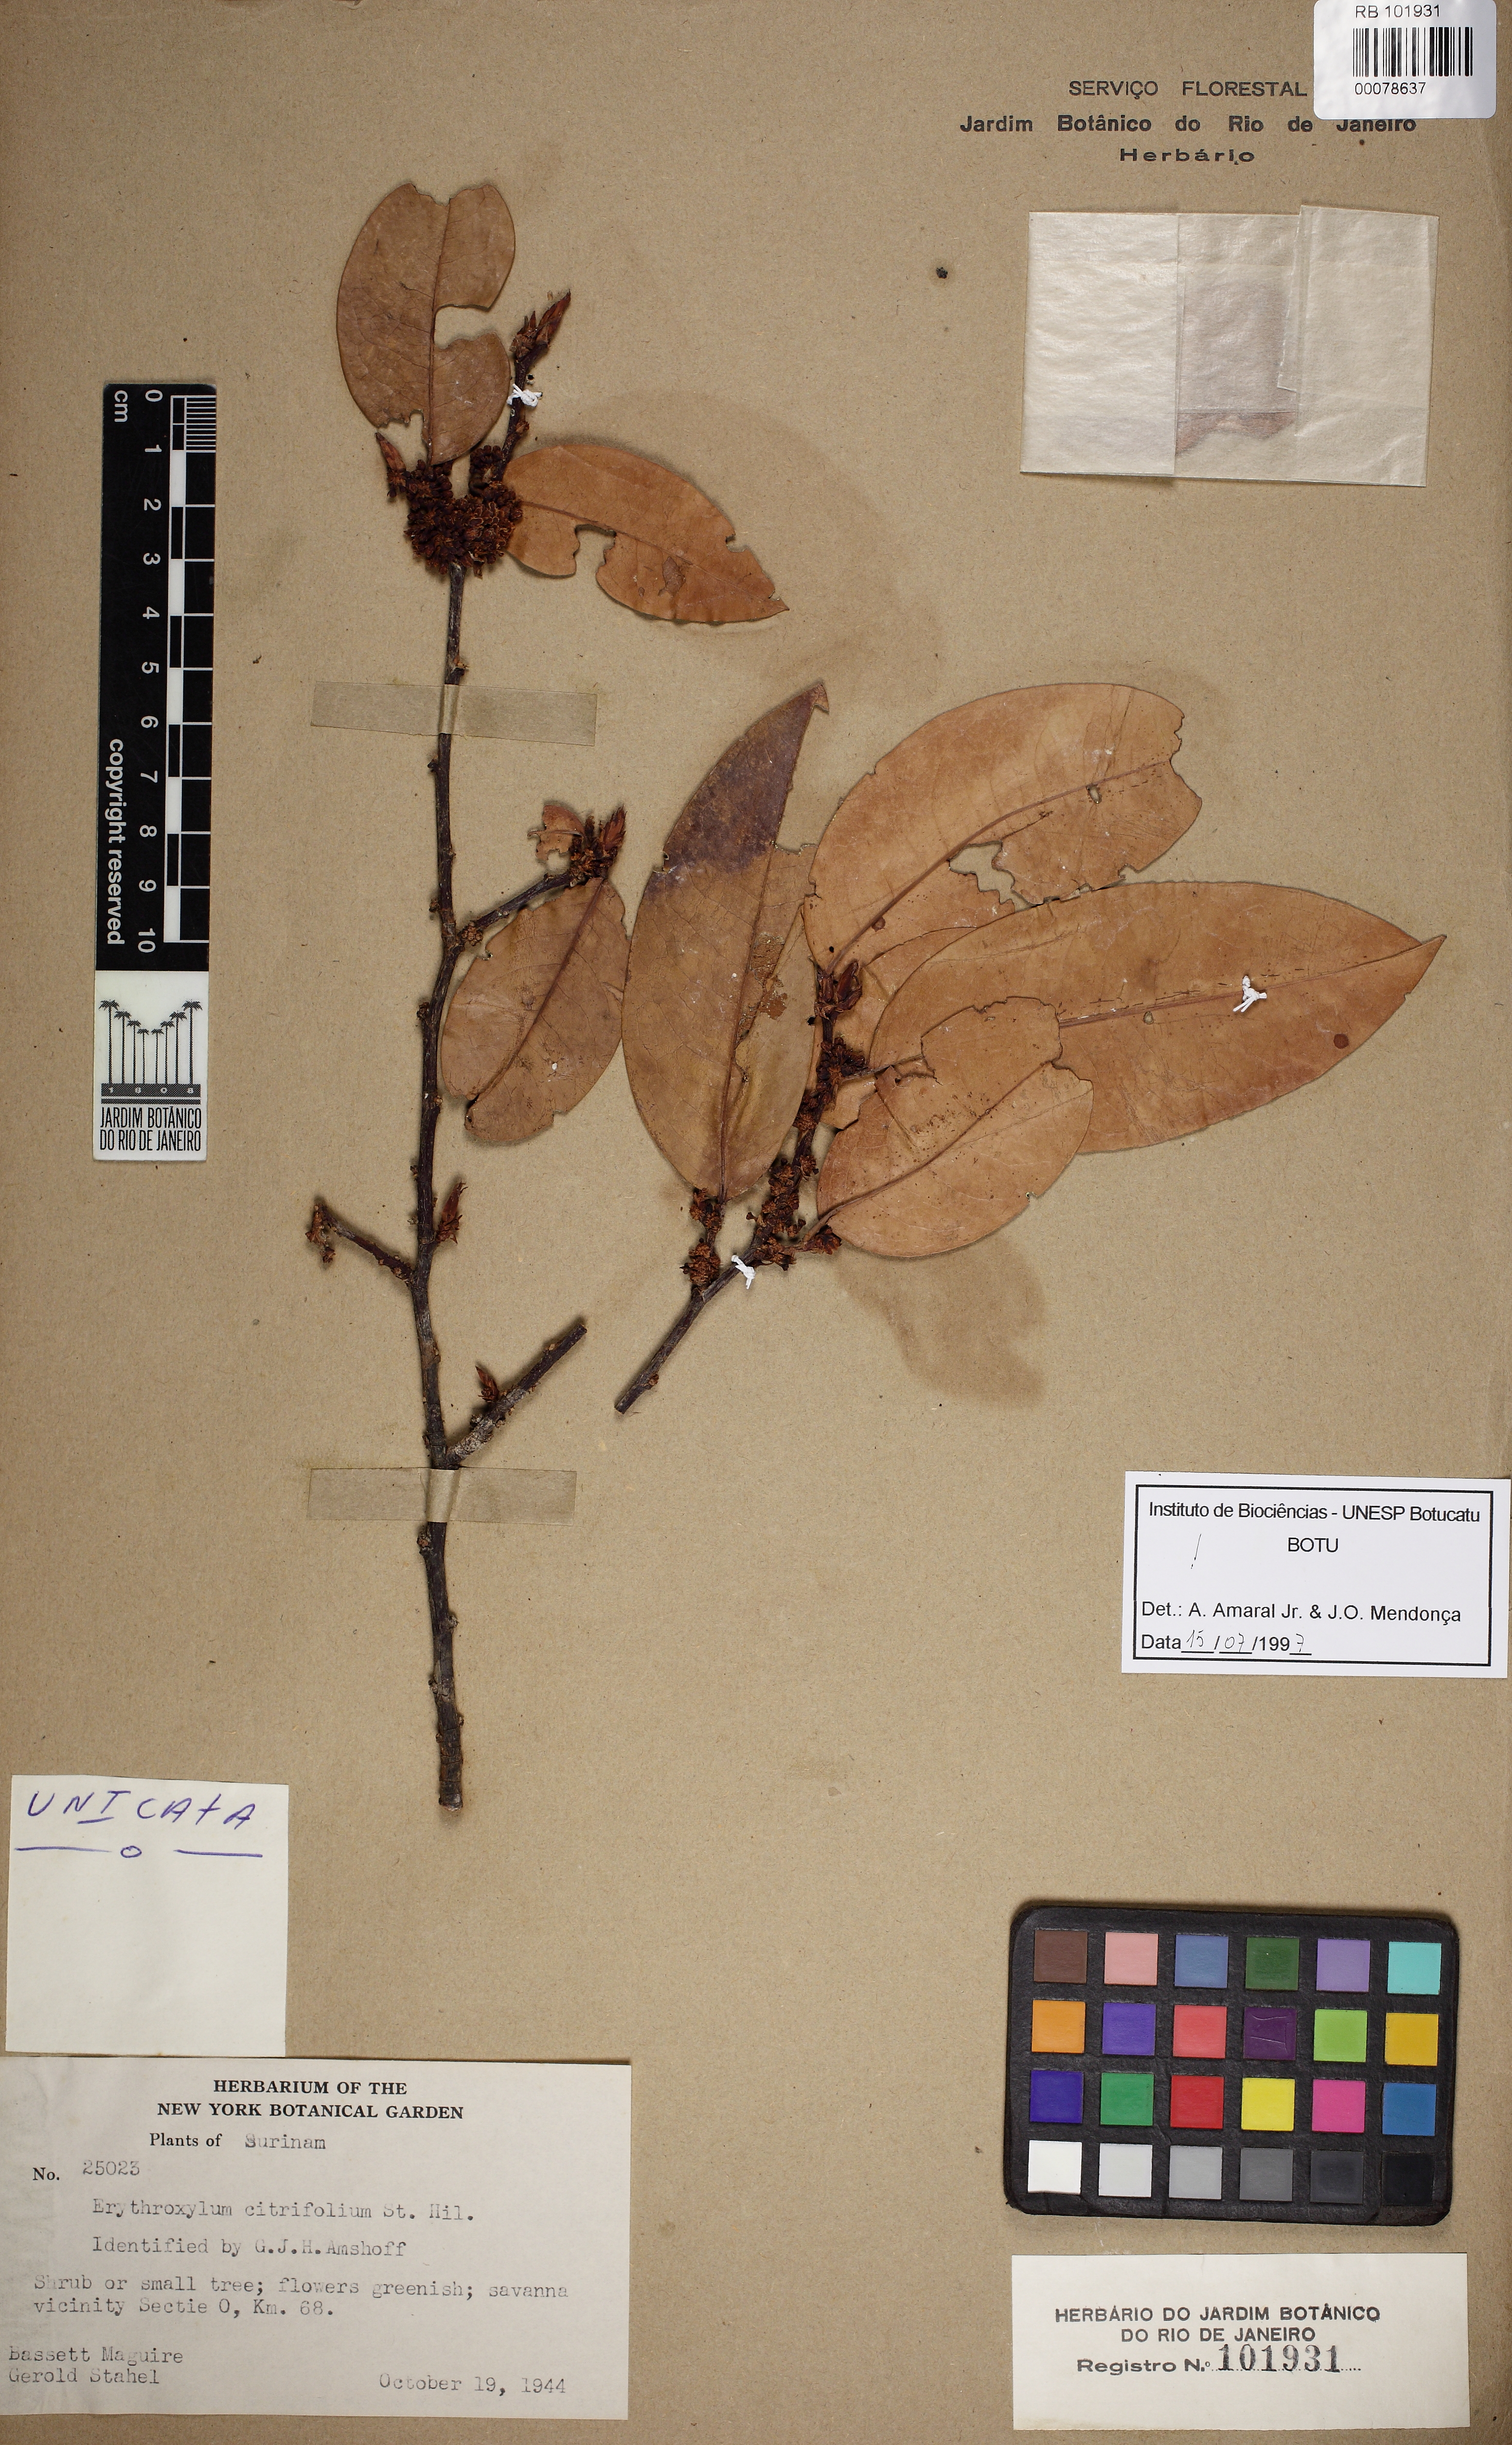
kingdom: Plantae
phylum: Tracheophyta
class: Magnoliopsida
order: Malpighiales
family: Erythroxylaceae
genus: Erythroxylum
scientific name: Erythroxylum citrifolium
